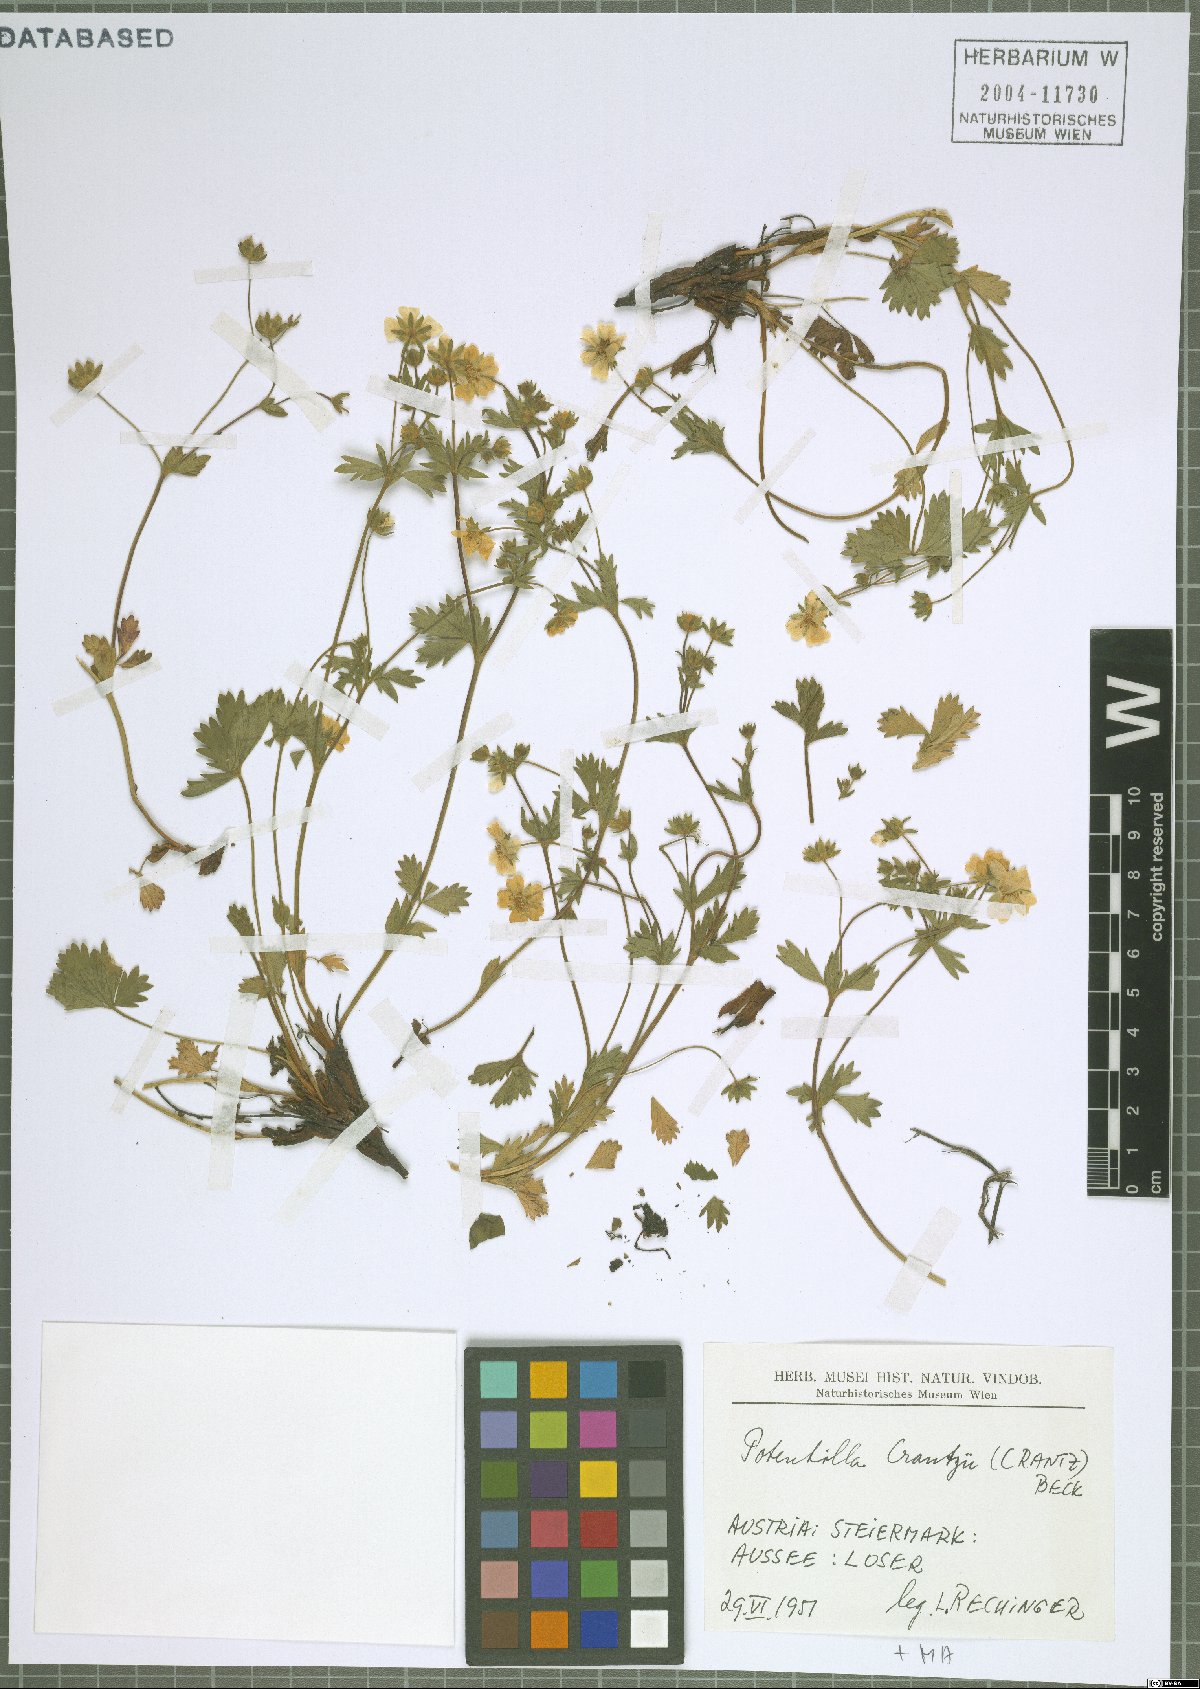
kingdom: Plantae
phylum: Tracheophyta
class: Magnoliopsida
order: Rosales
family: Rosaceae
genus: Potentilla
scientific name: Potentilla crantzii
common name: Alpine cinquefoil
